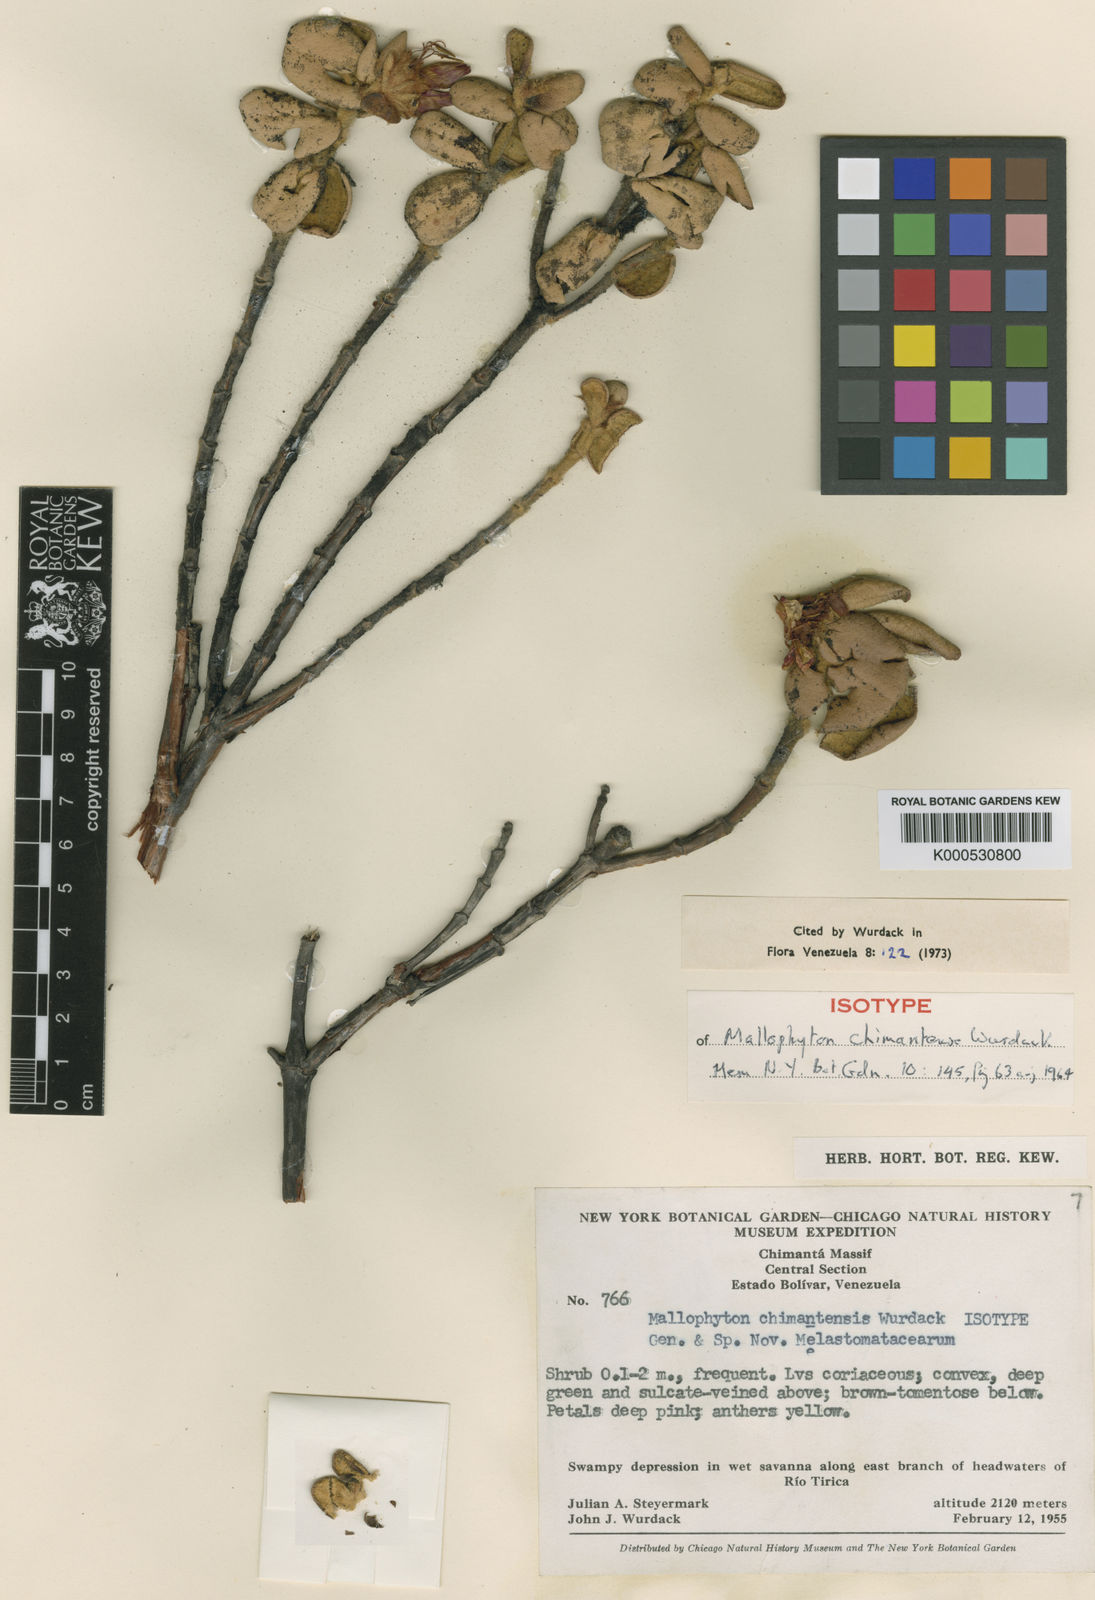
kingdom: Plantae
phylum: Tracheophyta
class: Magnoliopsida
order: Myrtales
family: Melastomataceae
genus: Mallophyton
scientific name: Mallophyton chimantense
